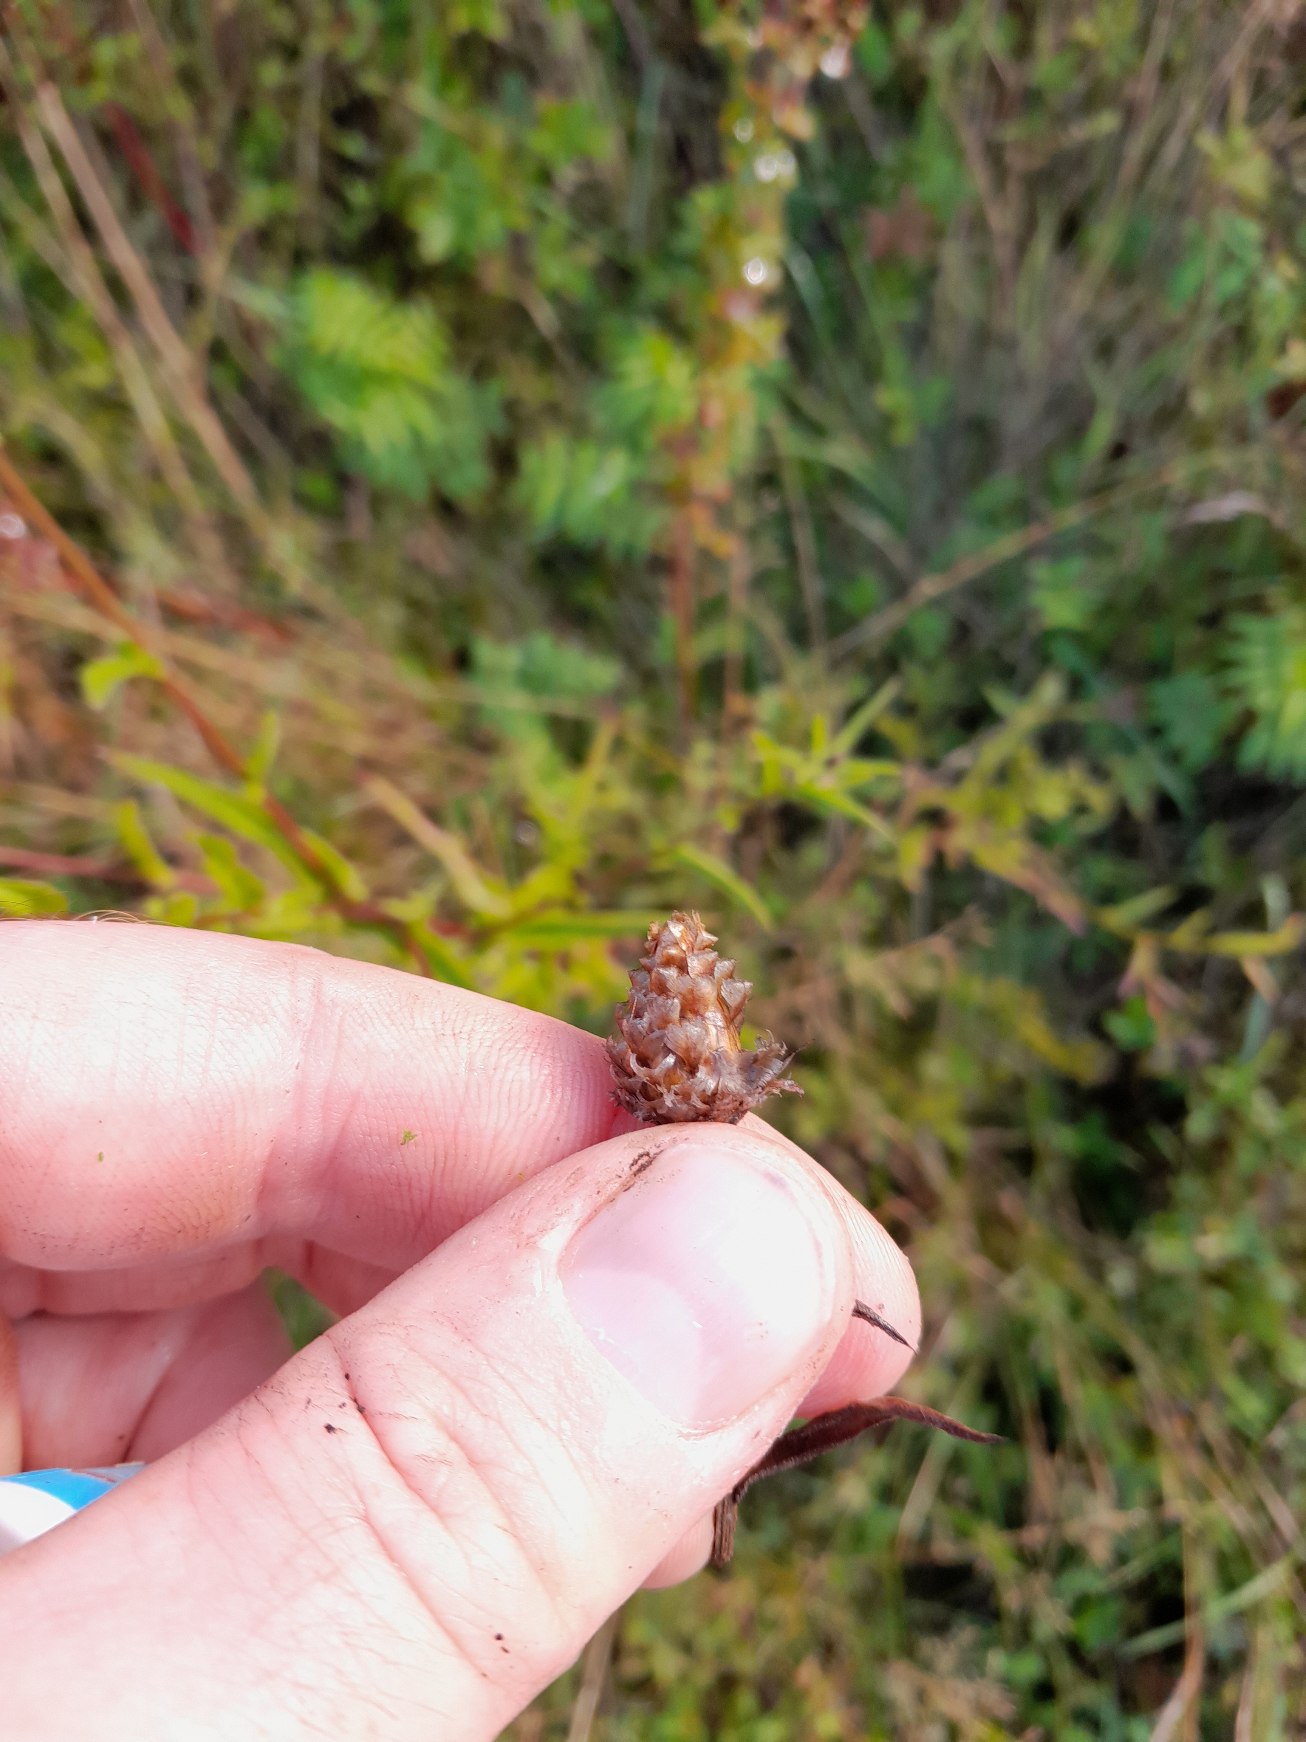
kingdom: Plantae
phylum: Tracheophyta
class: Magnoliopsida
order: Asterales
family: Asteraceae
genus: Centaurea
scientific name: Centaurea jacea
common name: Almindelig knopurt
